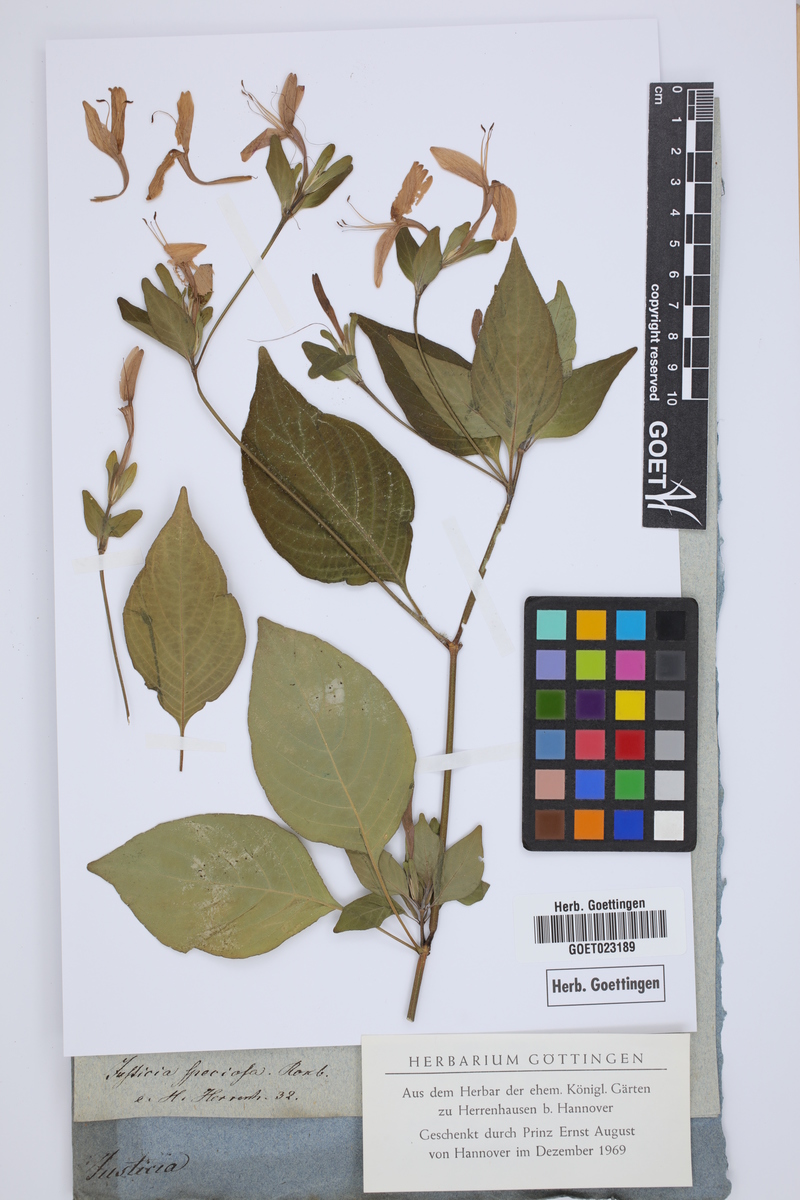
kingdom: Plantae
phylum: Tracheophyta
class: Magnoliopsida
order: Lamiales
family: Acanthaceae
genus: Dicliptera
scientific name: Dicliptera raui
